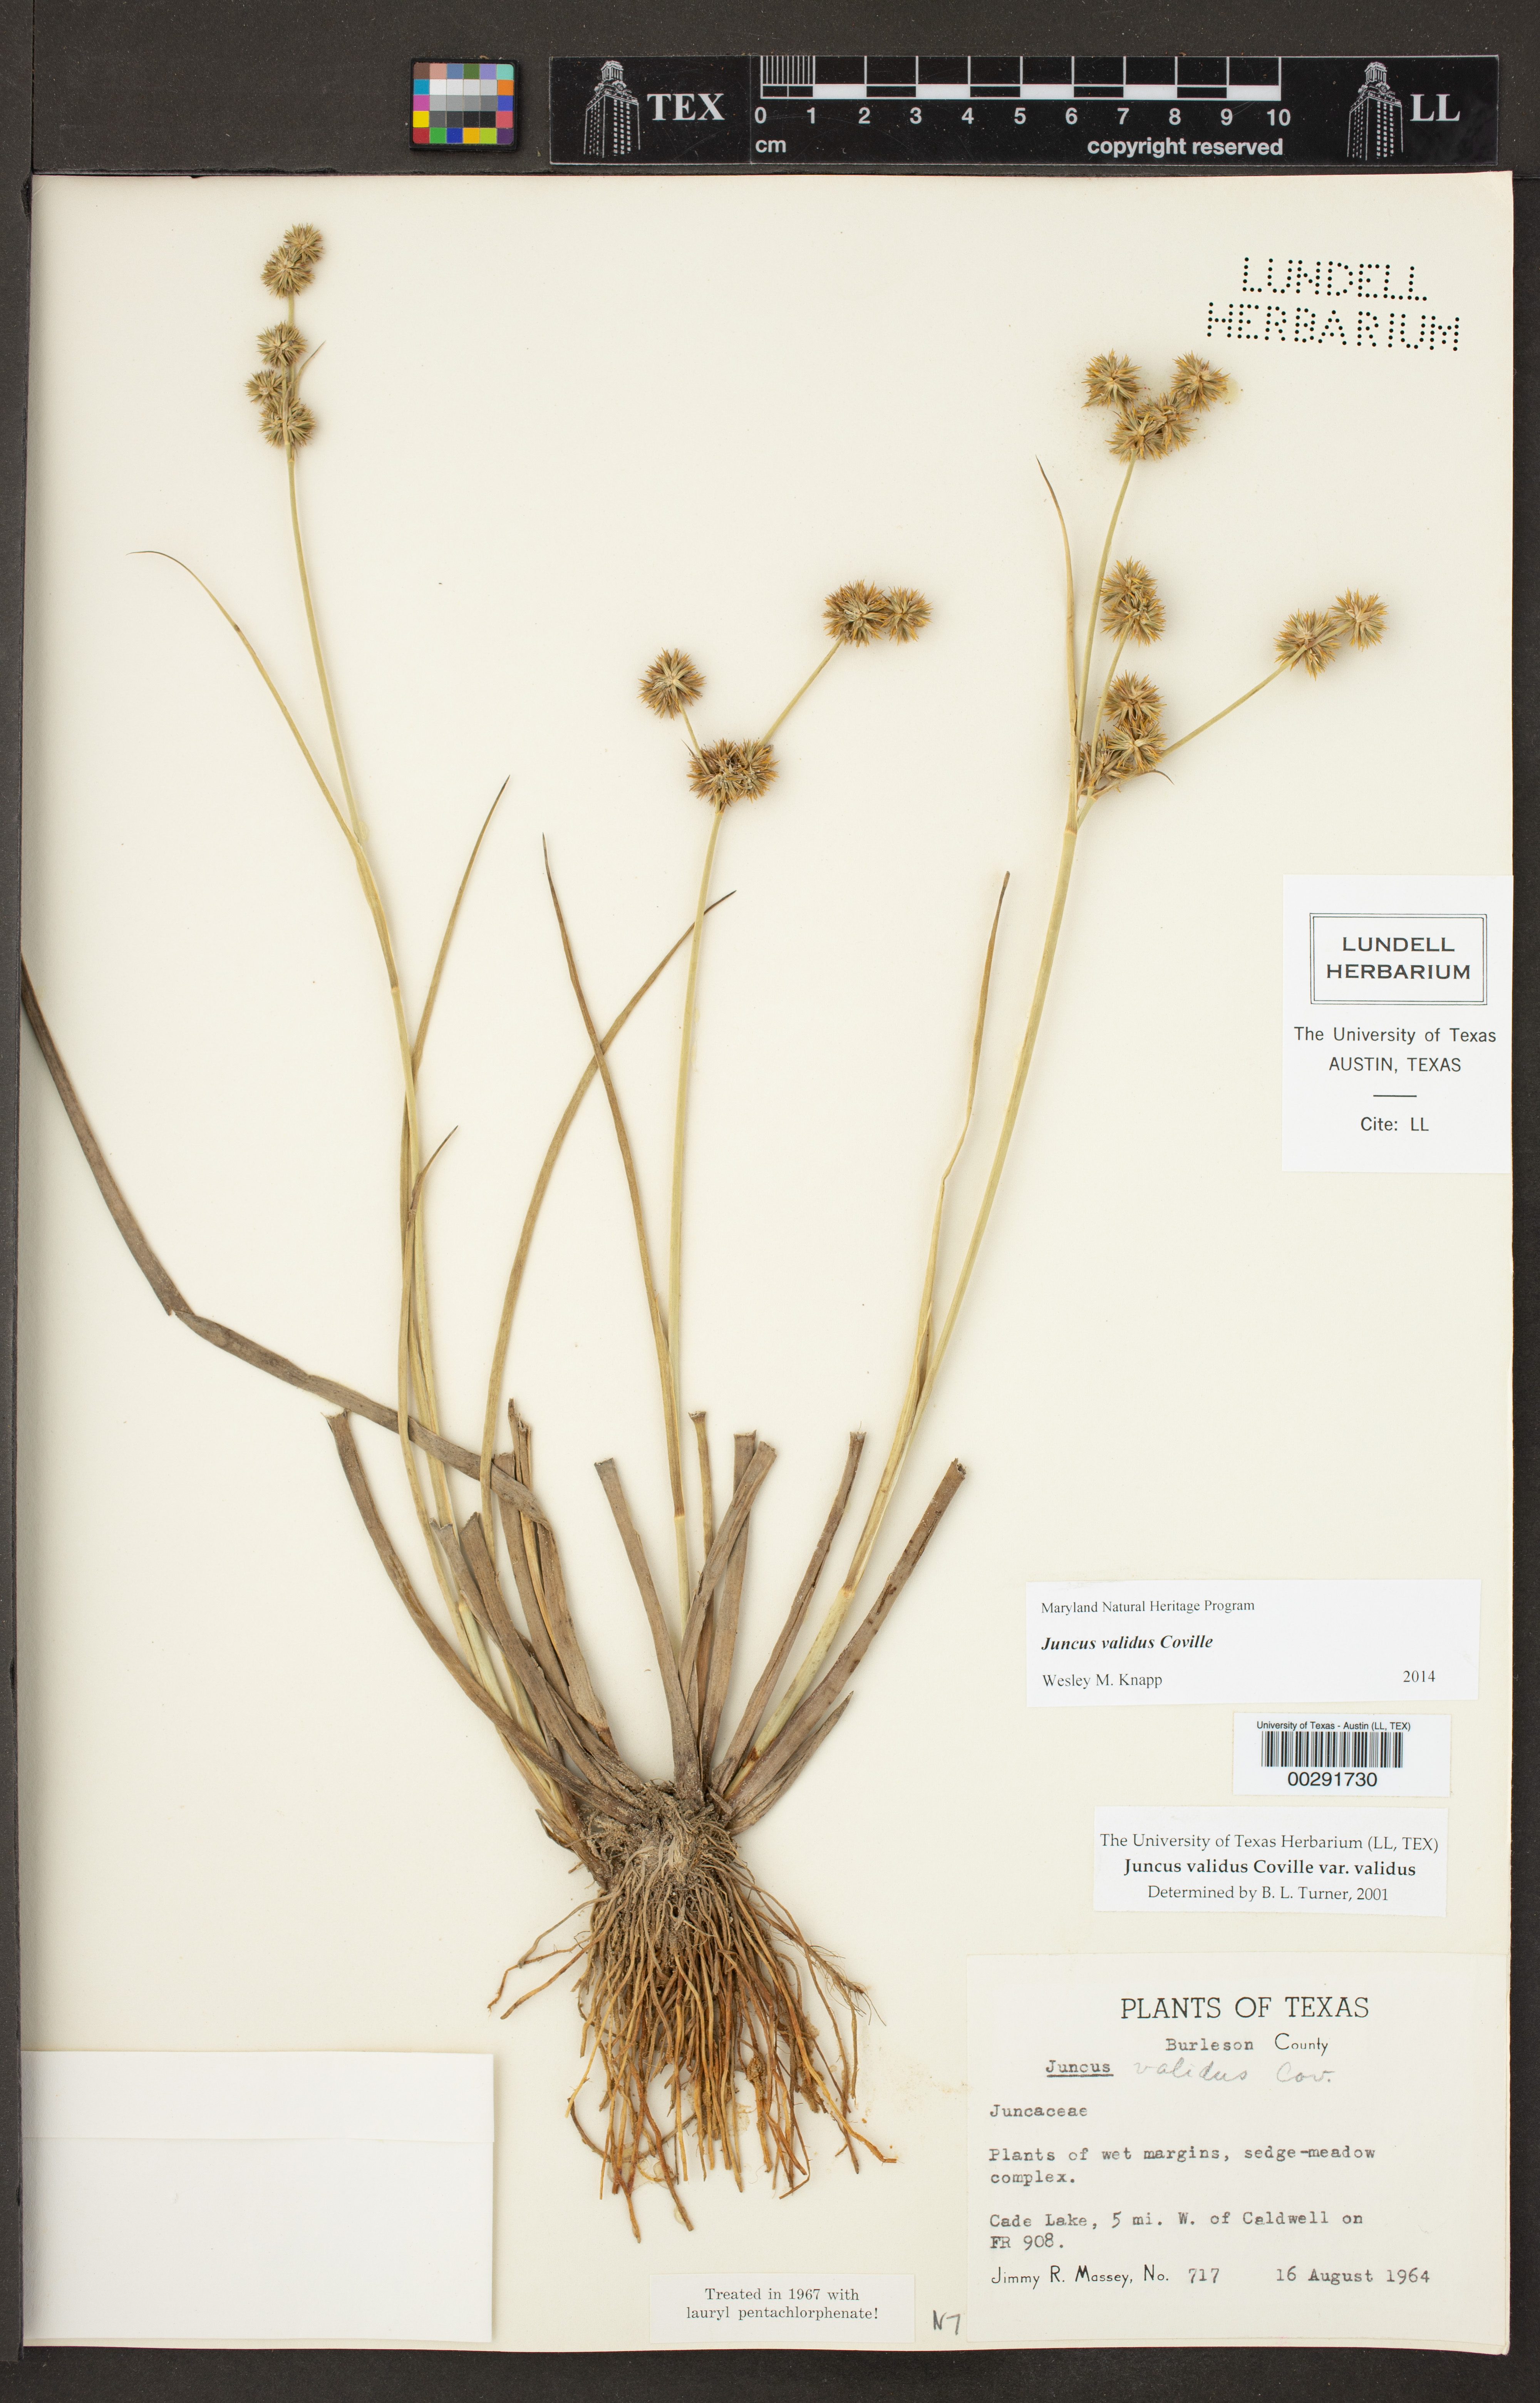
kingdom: Plantae
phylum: Tracheophyta
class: Liliopsida
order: Poales
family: Juncaceae
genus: Juncus
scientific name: Juncus validus
